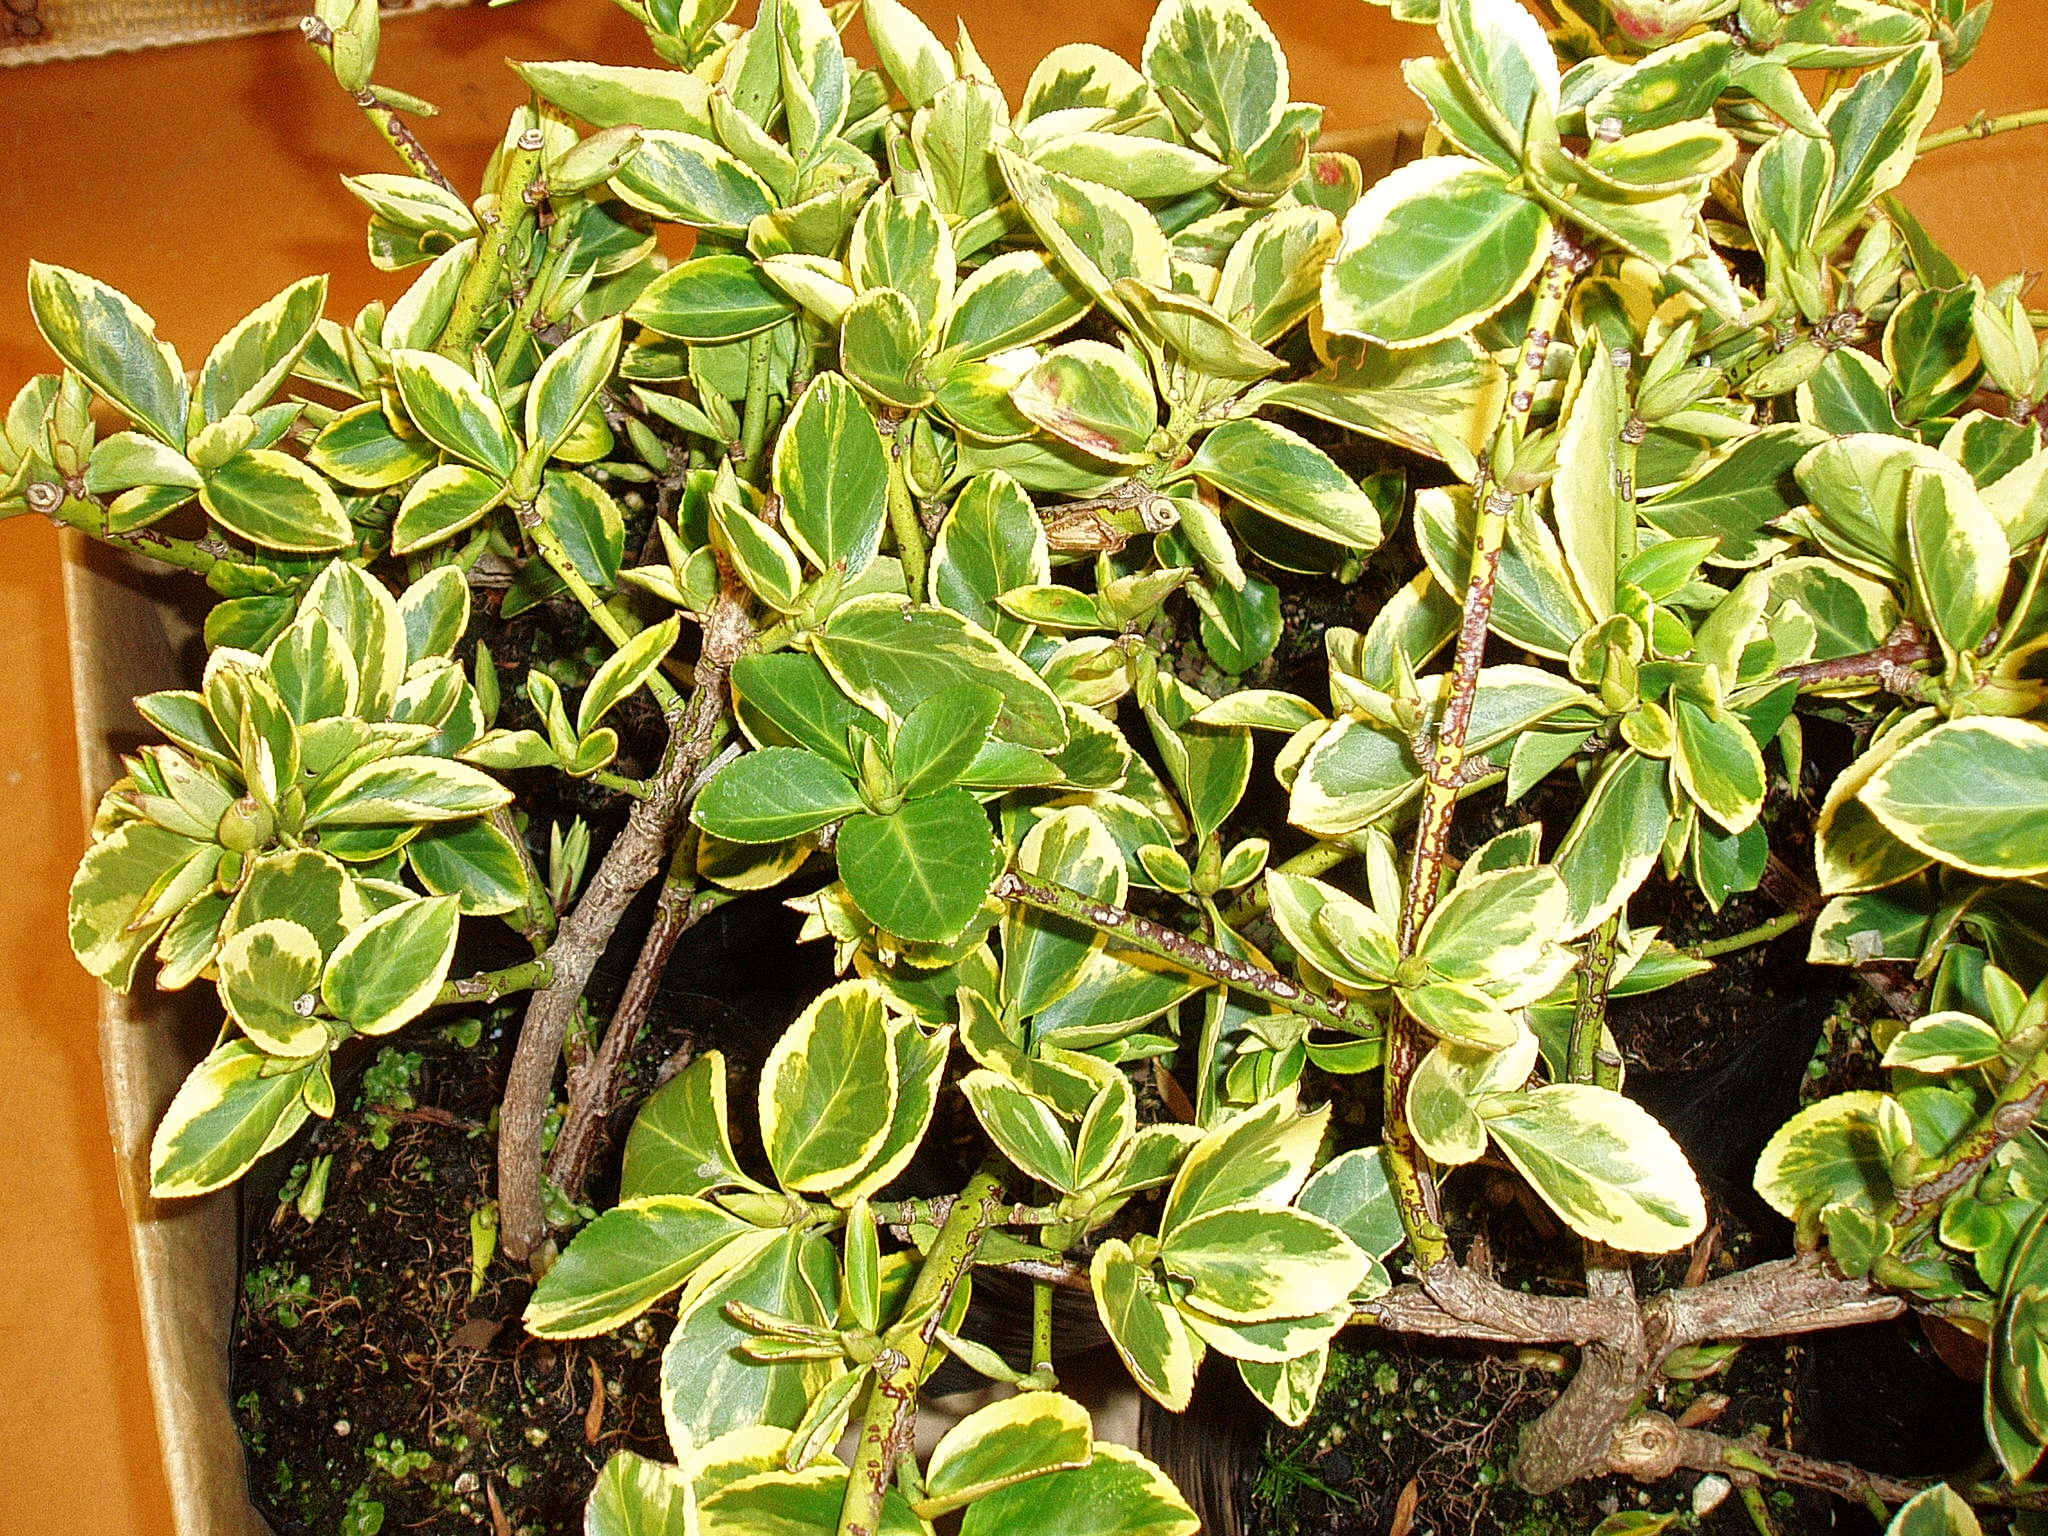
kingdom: Plantae
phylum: Tracheophyta
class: Magnoliopsida
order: Celastrales
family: Celastraceae
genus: Euonymus
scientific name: Euonymus fortunei
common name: Climbing euonymus
